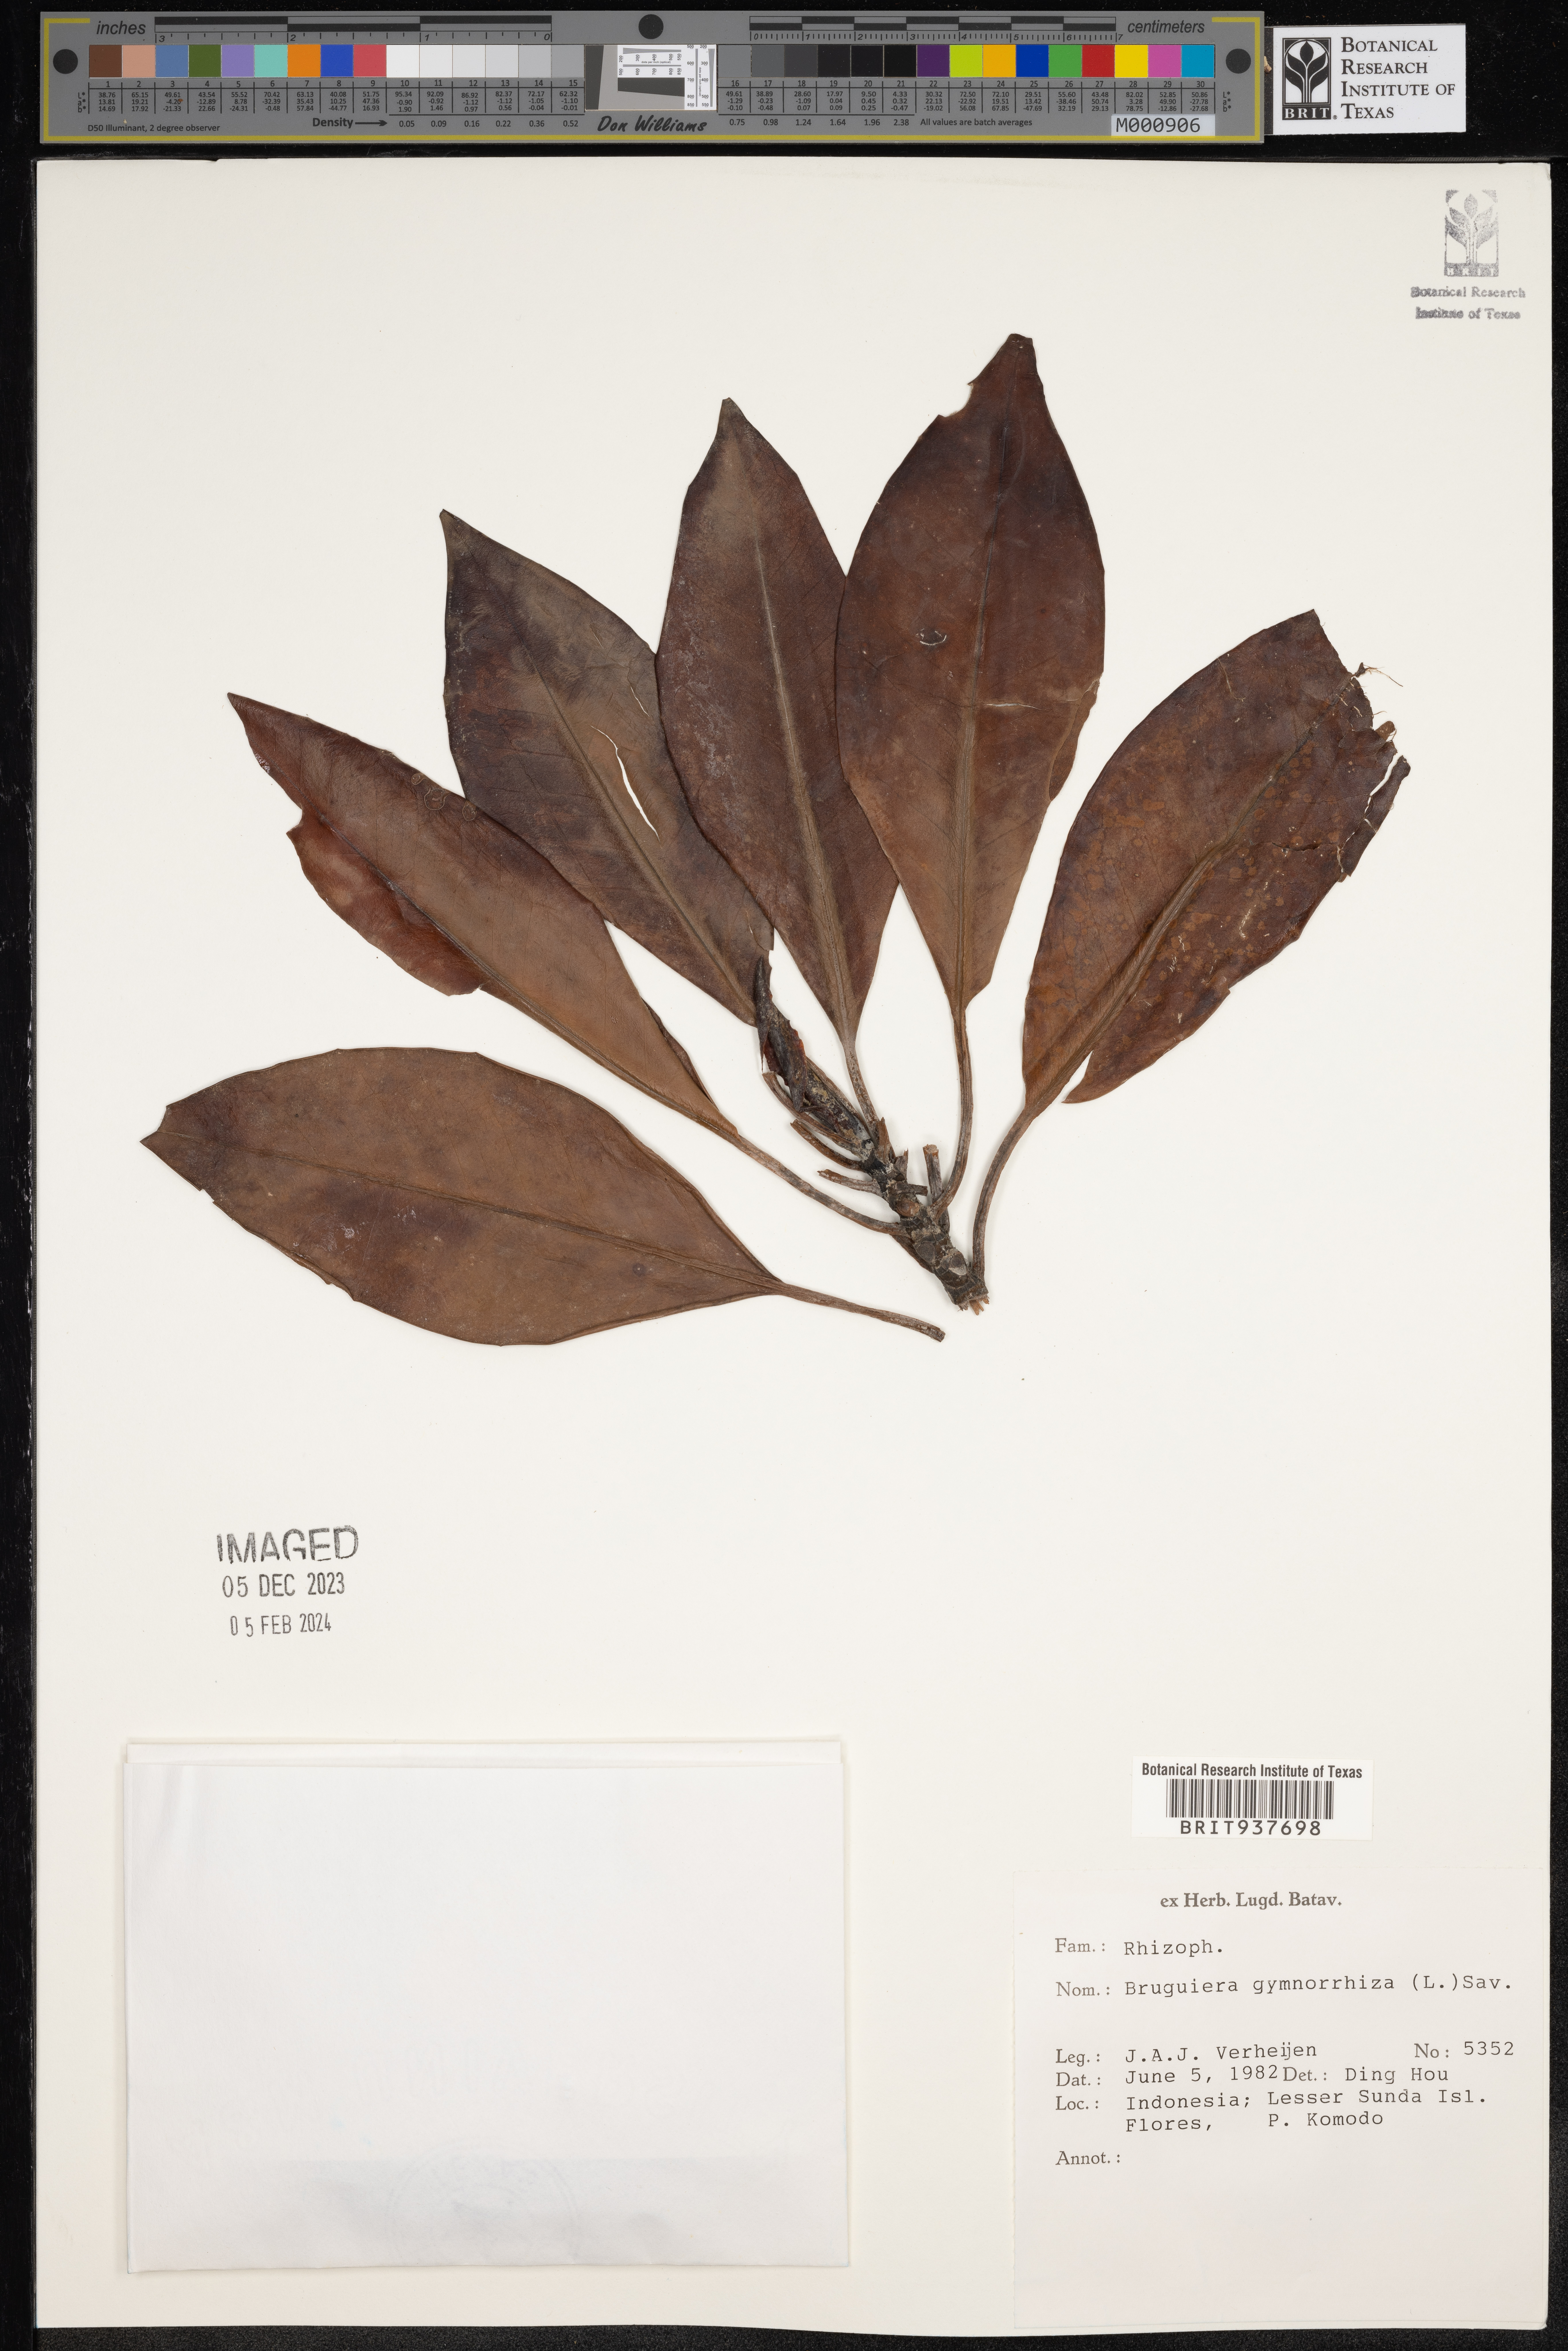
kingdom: Plantae
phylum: Tracheophyta
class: Magnoliopsida
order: Malpighiales
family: Rhizophoraceae
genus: Bruguiera
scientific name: Bruguiera gymnorhiza
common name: Oriental mangrove
